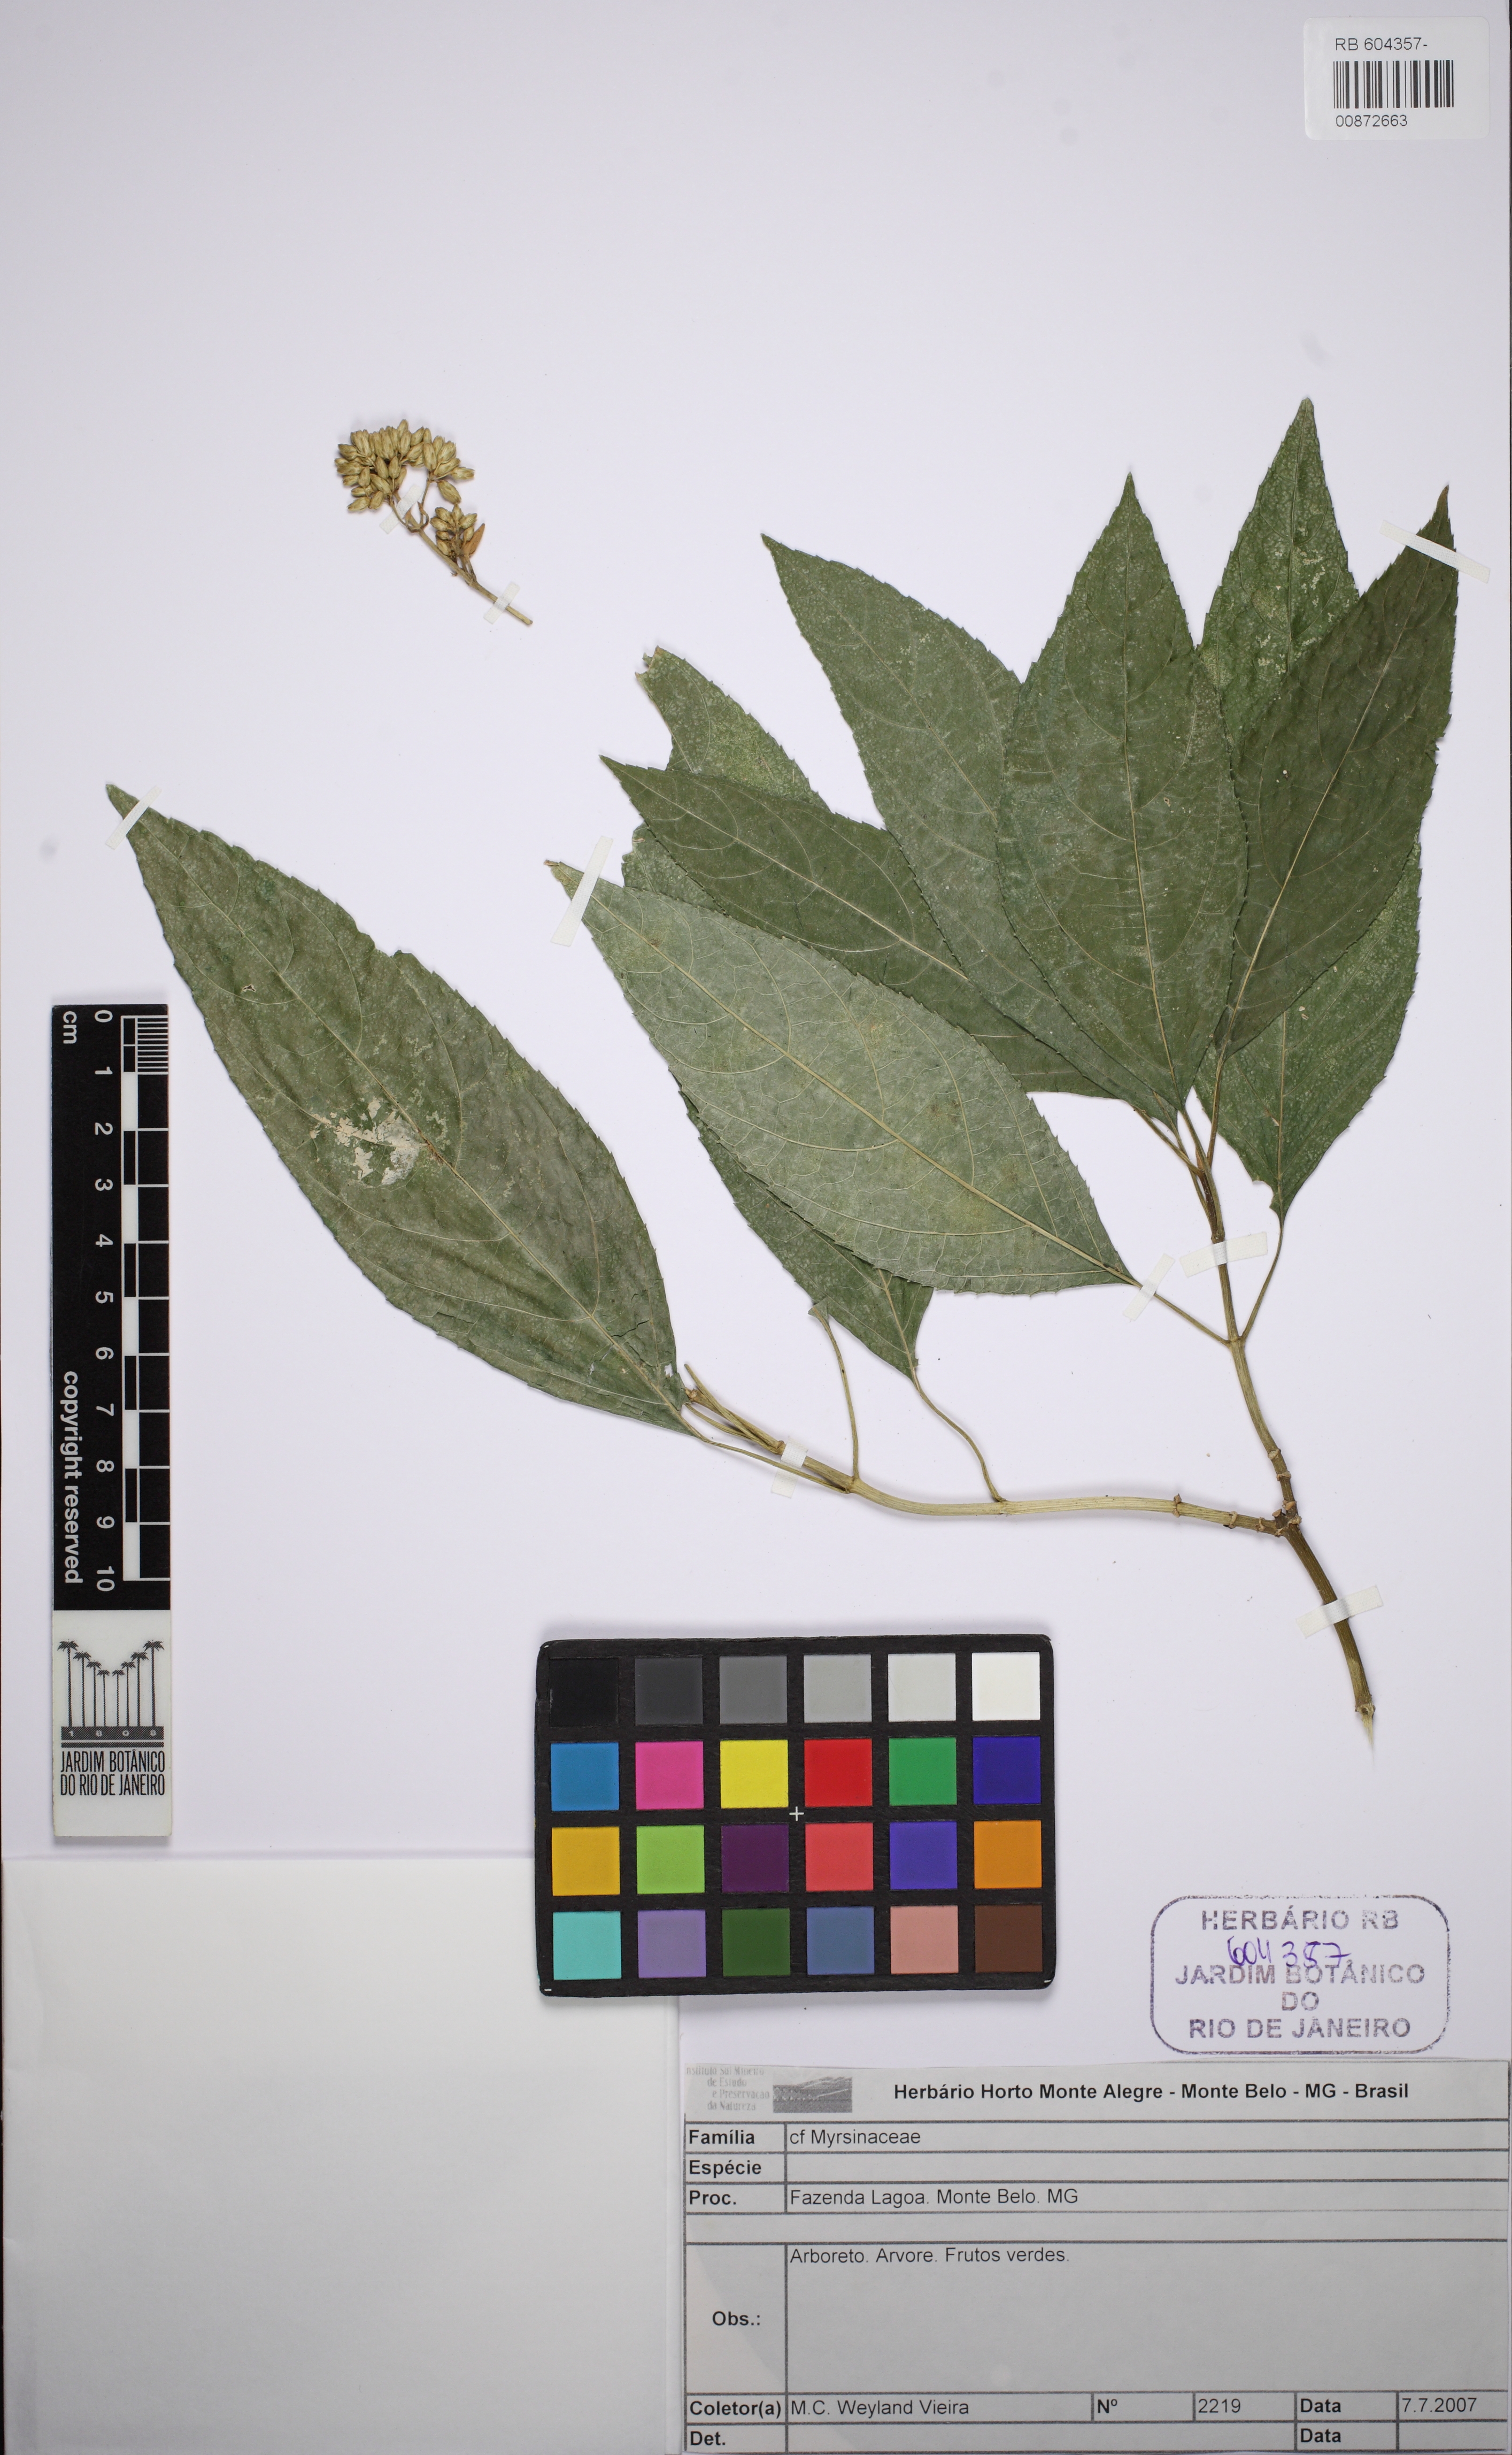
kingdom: Plantae
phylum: Tracheophyta
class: Magnoliopsida
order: Ericales
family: Primulaceae
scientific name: Primulaceae
